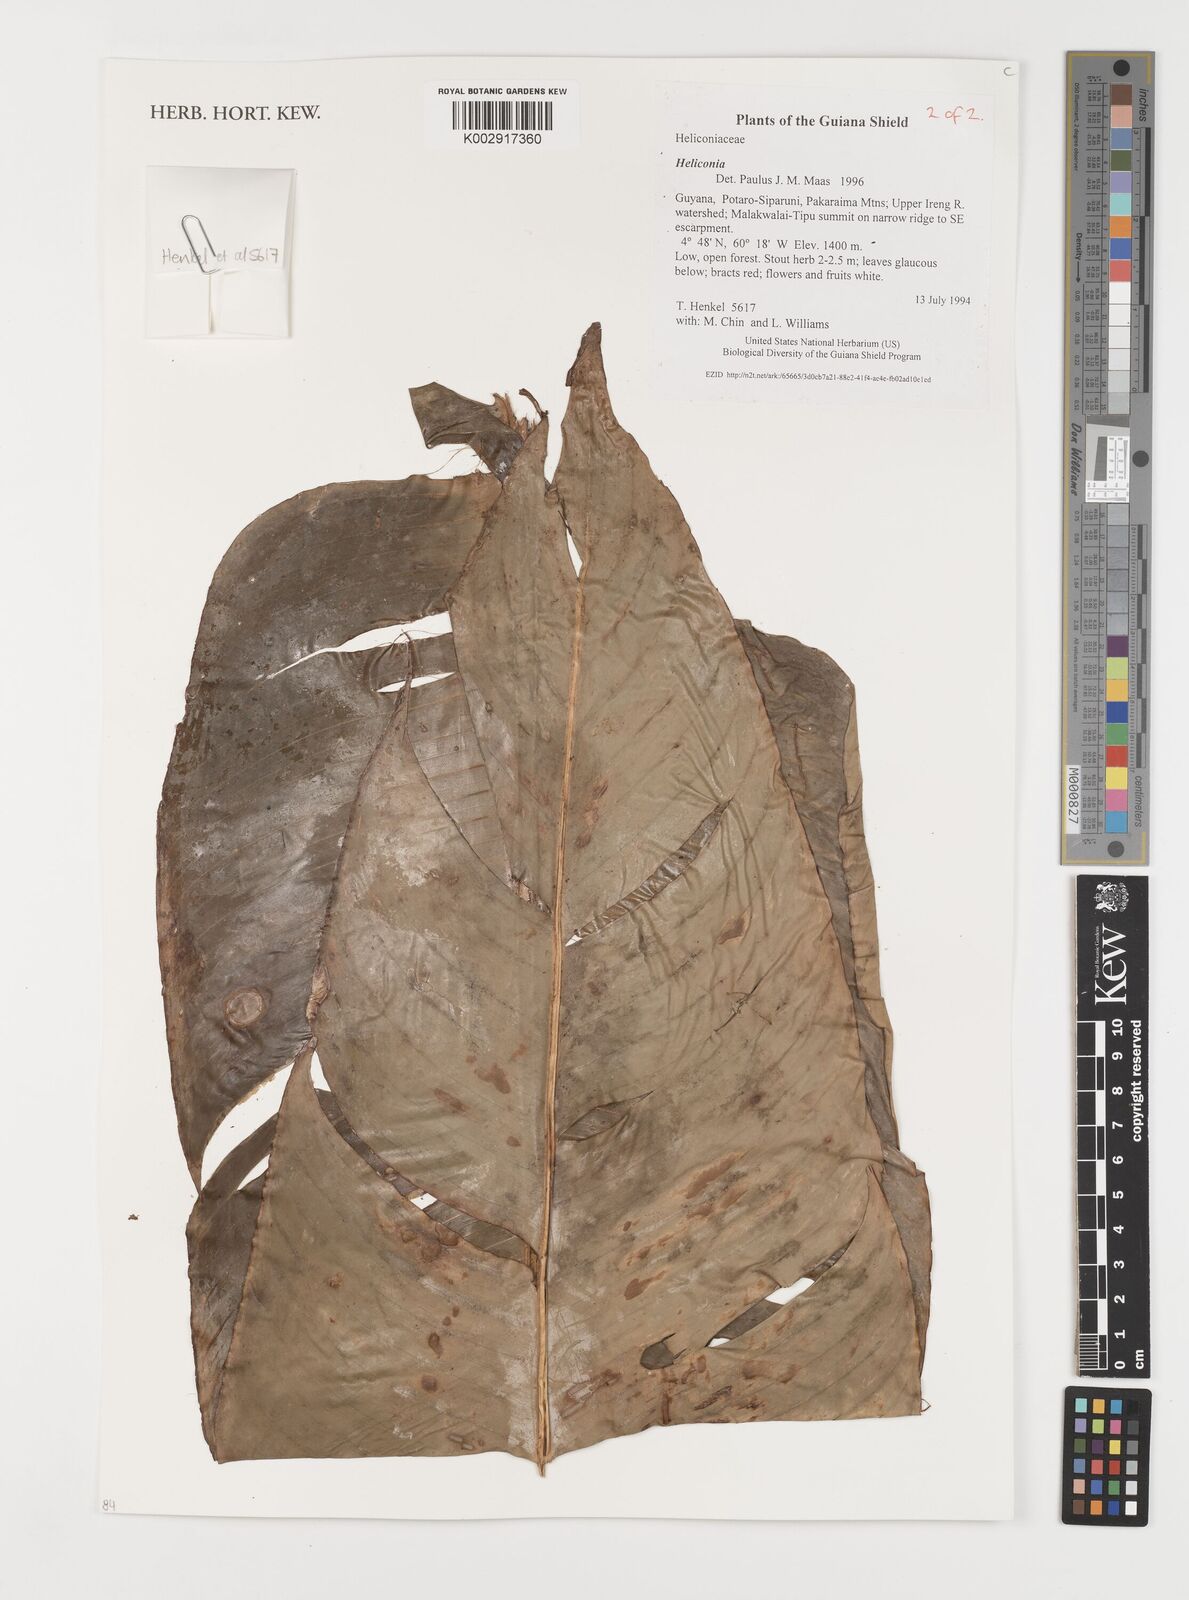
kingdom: Plantae
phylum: Tracheophyta
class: Liliopsida
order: Zingiberales
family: Heliconiaceae
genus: Heliconia
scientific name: Heliconia
